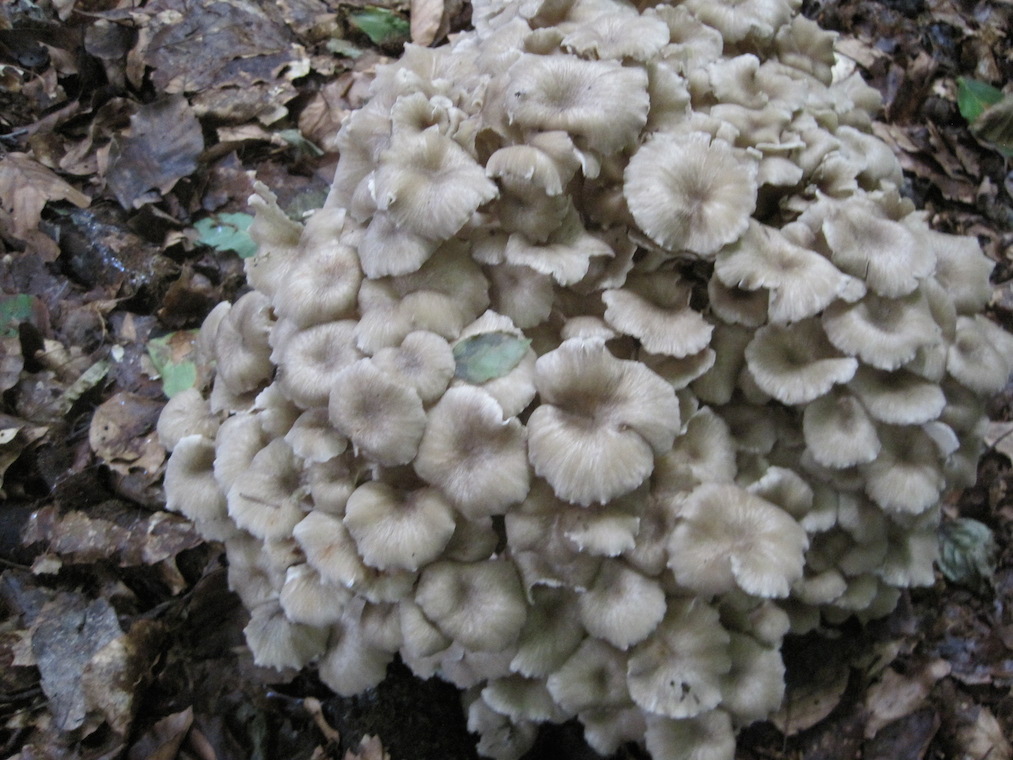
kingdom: Fungi
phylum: Basidiomycota
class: Agaricomycetes
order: Polyporales
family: Polyporaceae
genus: Polyporus
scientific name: Polyporus umbellatus
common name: skærmformet stilkporesvamp
